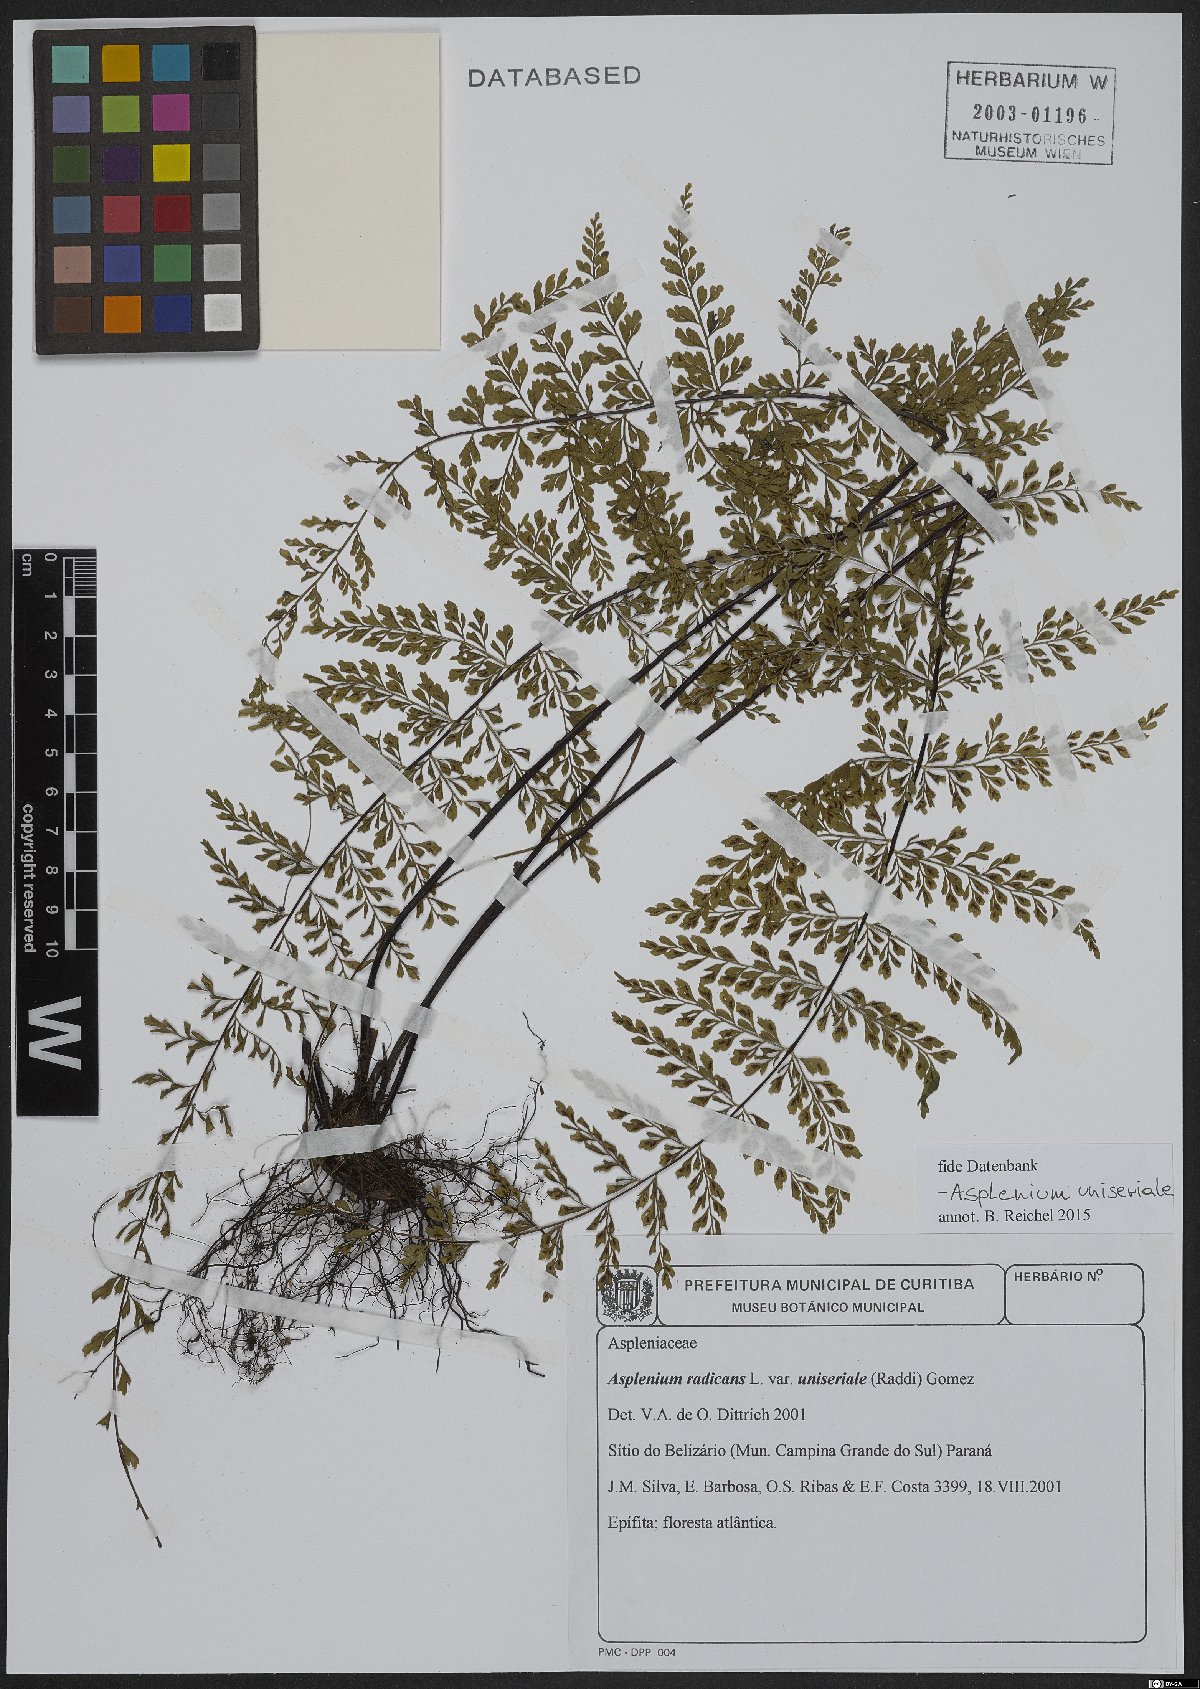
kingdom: Plantae
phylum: Tracheophyta
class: Polypodiopsida
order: Polypodiales
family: Aspleniaceae
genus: Asplenium
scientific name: Asplenium uniseriale
